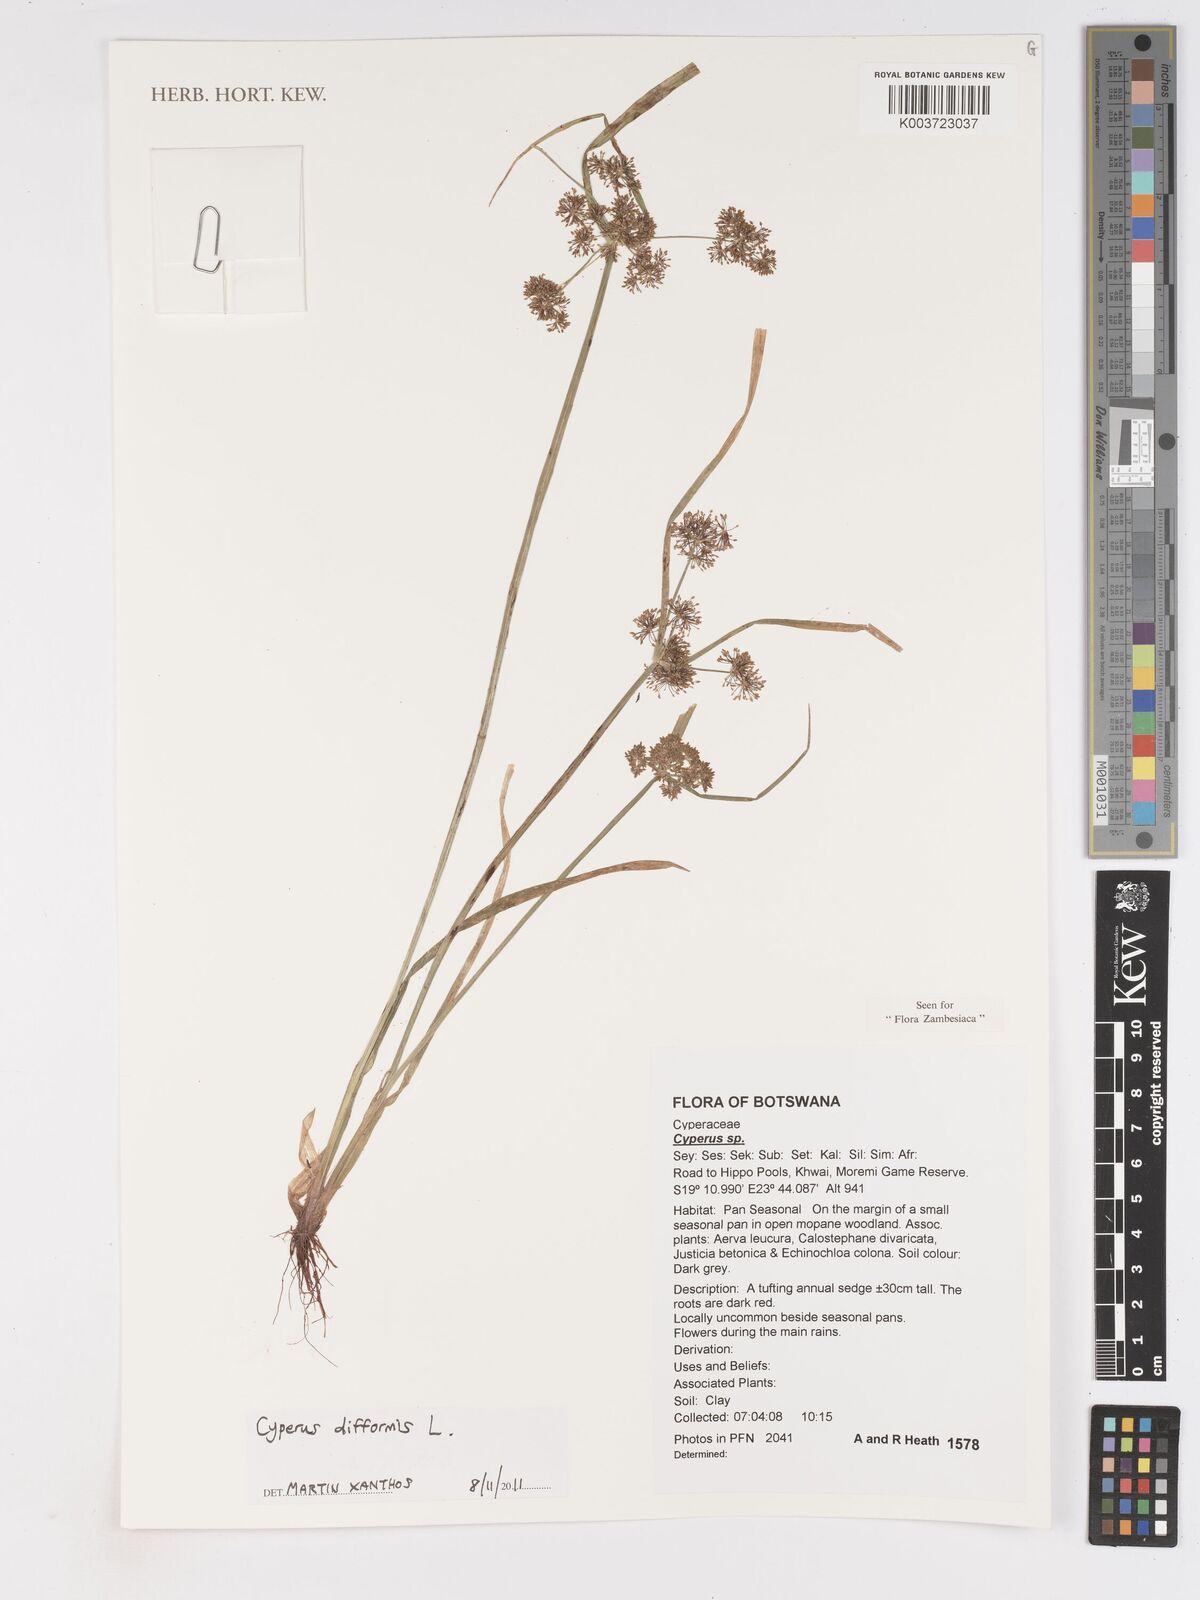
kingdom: Plantae
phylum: Tracheophyta
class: Liliopsida
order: Poales
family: Cyperaceae
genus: Cyperus
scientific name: Cyperus difformis
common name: Variable flatsedge
